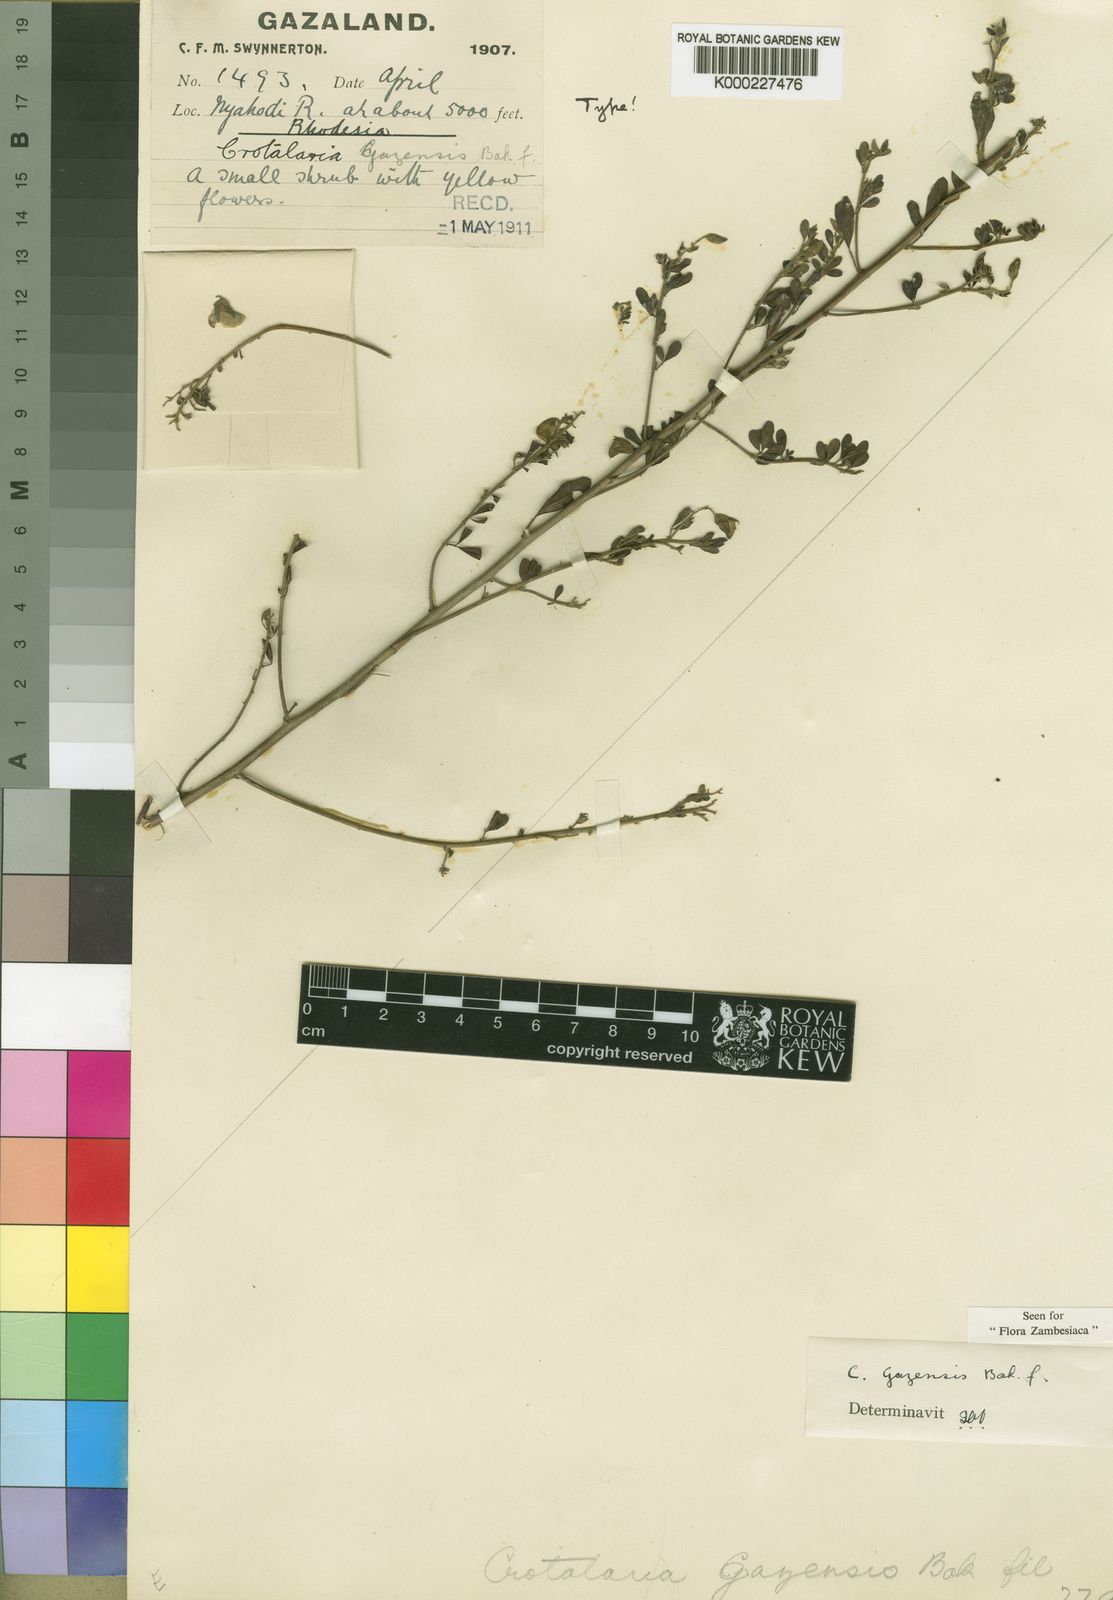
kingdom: Plantae
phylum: Tracheophyta
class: Magnoliopsida
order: Fabales
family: Fabaceae
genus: Crotalaria
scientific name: Crotalaria gazensis
